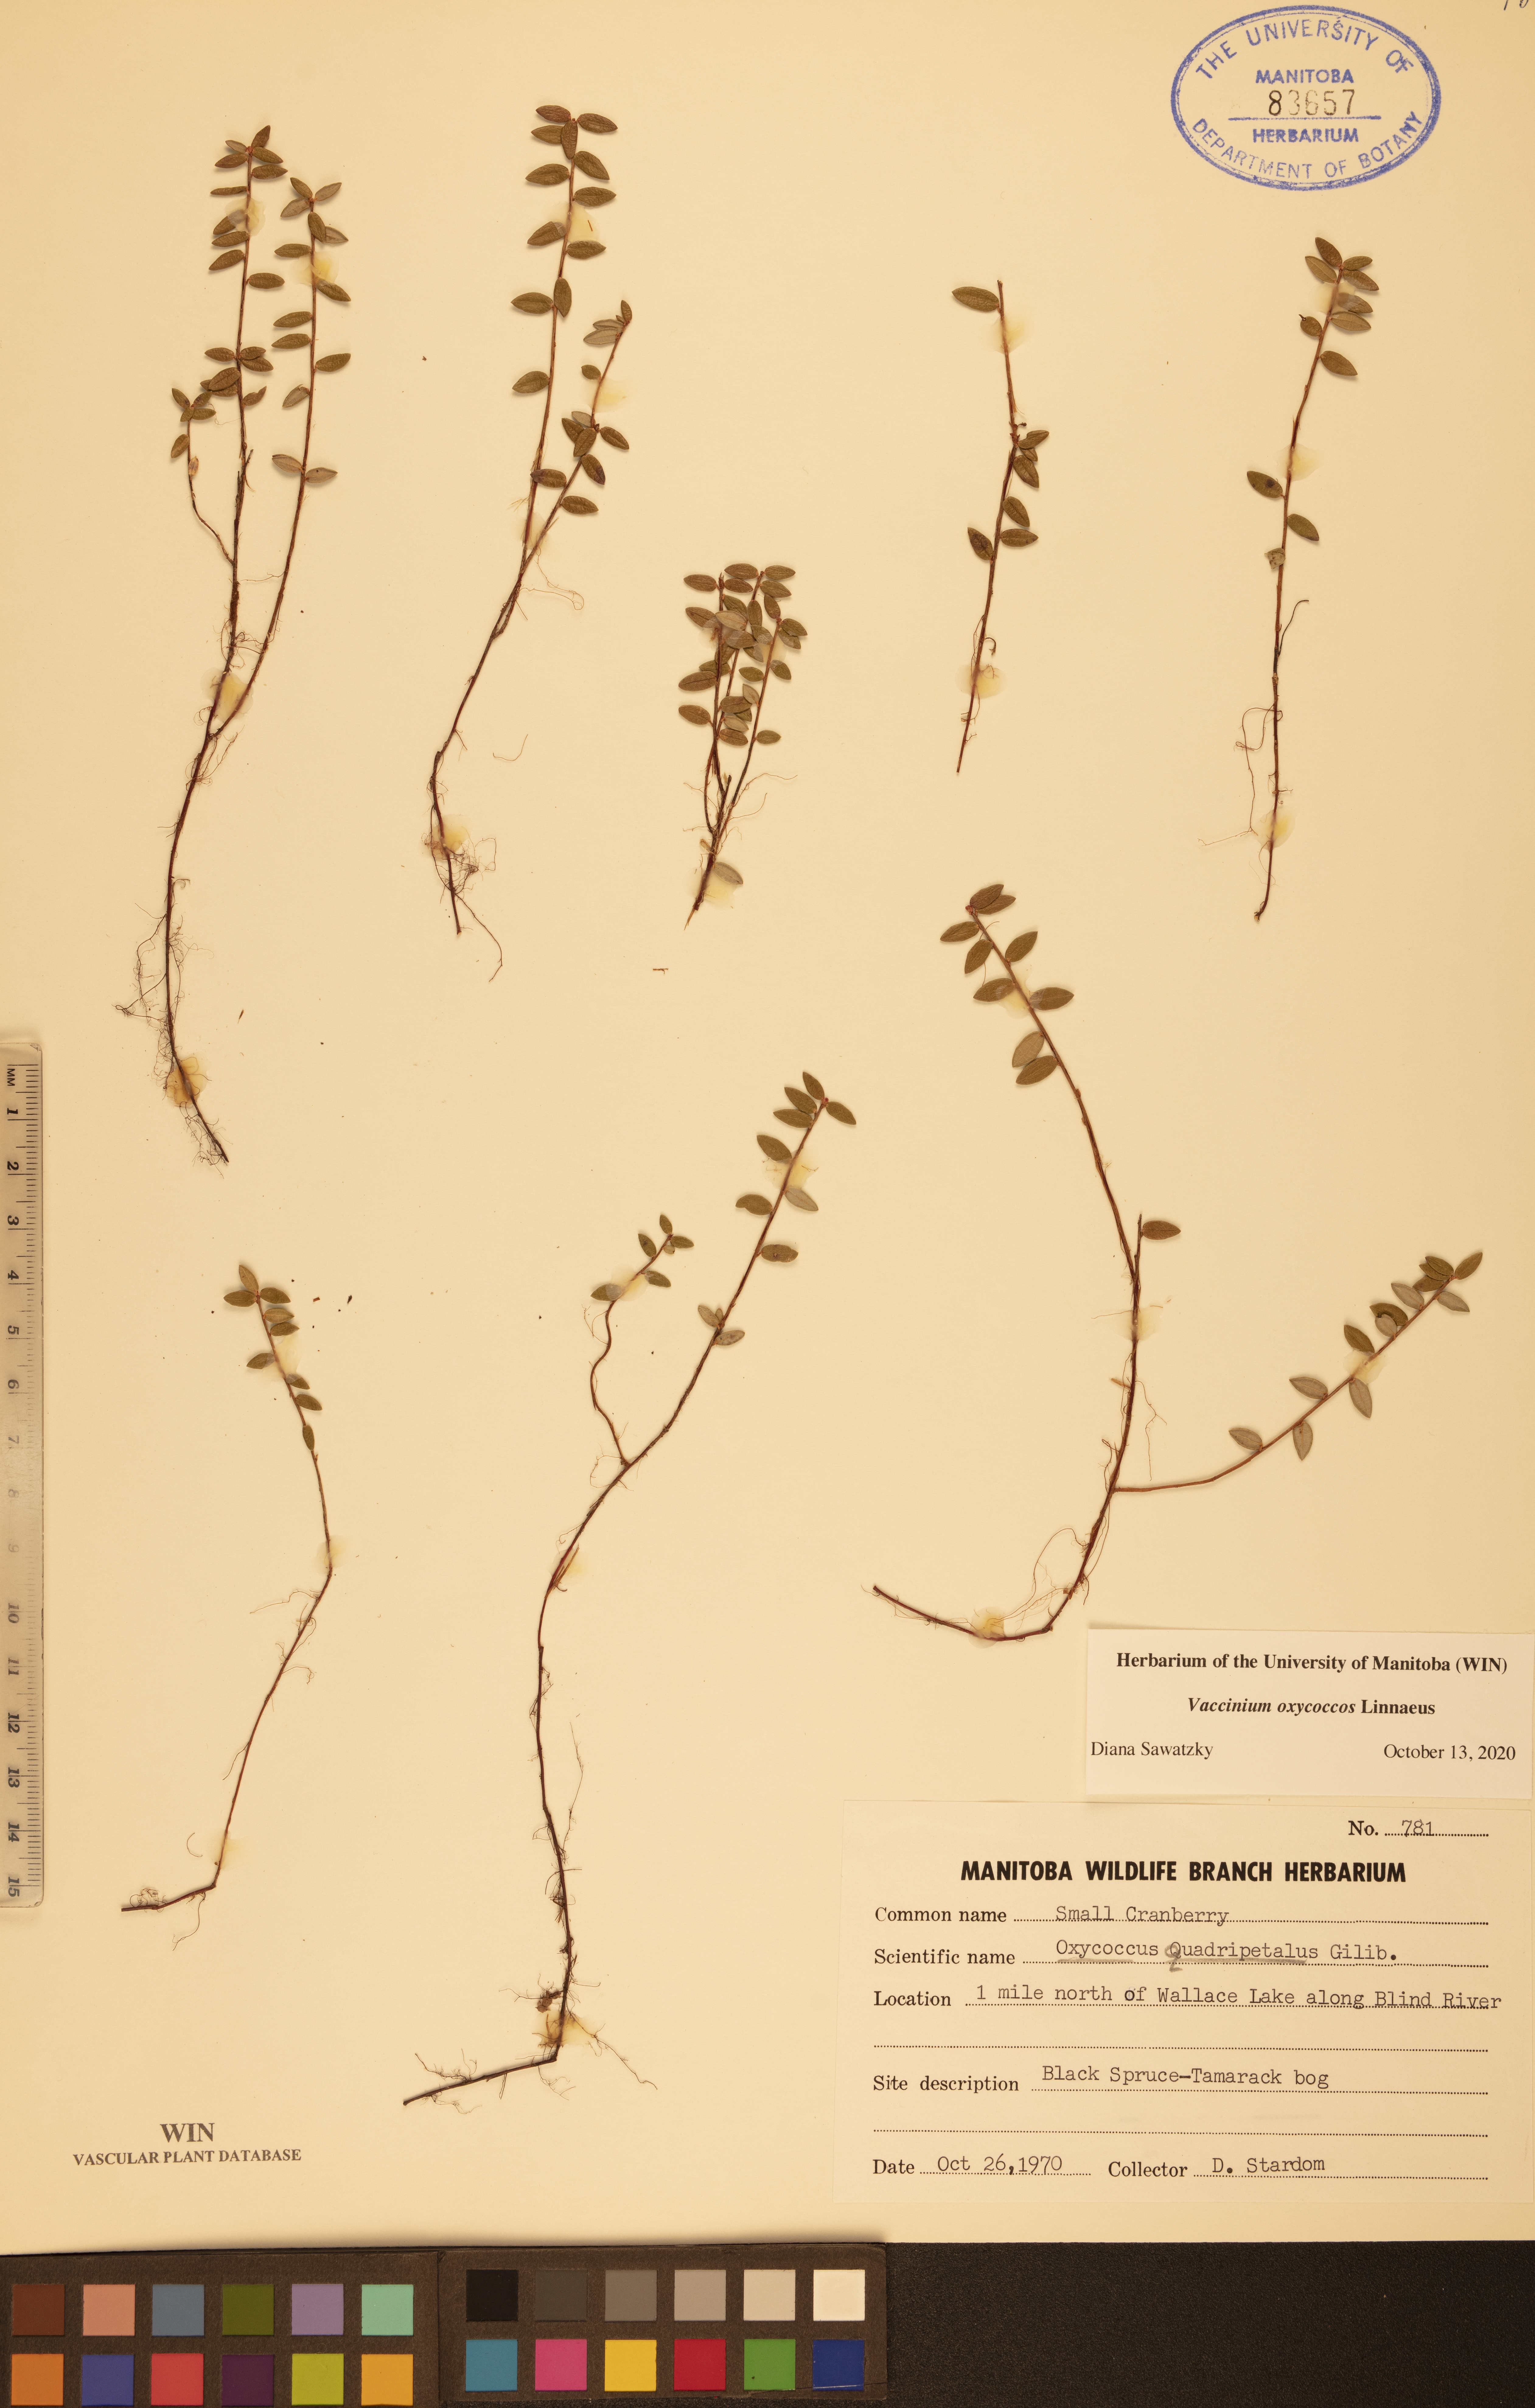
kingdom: Plantae
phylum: Tracheophyta
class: Magnoliopsida
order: Ericales
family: Ericaceae
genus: Vaccinium
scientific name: Vaccinium oxycoccos
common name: Cranberry
